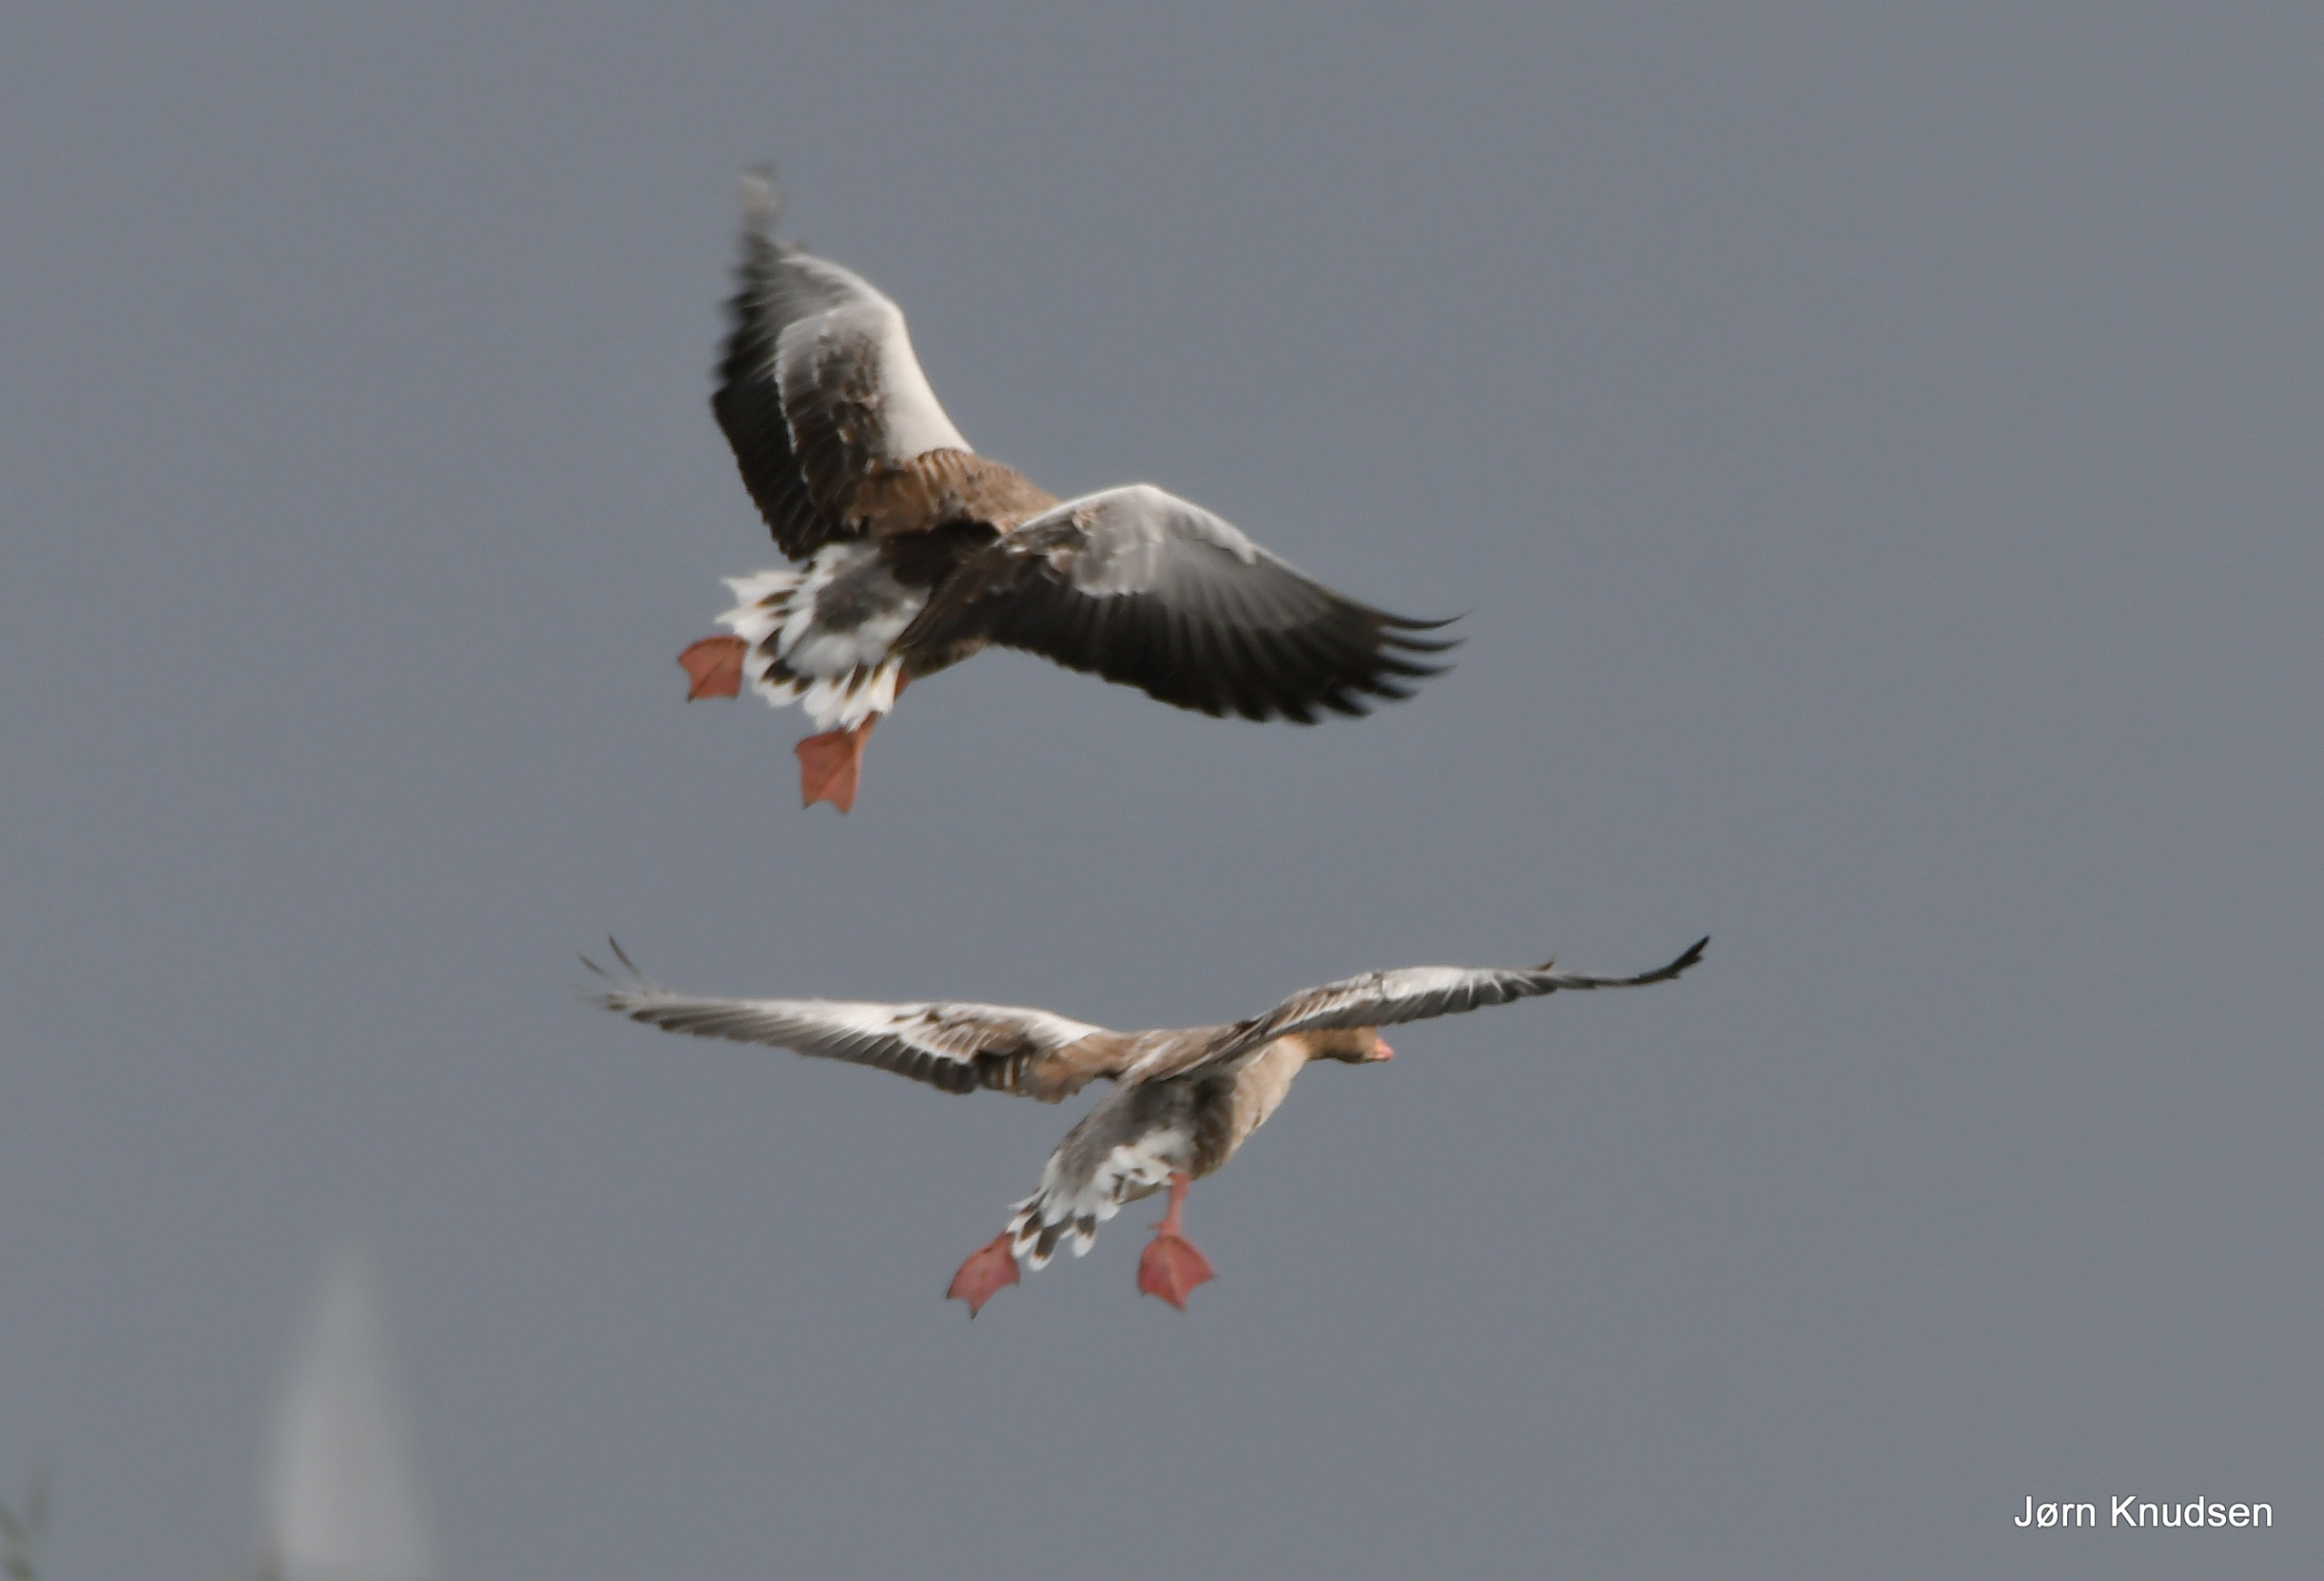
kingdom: Animalia
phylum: Chordata
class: Aves
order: Anseriformes
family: Anatidae
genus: Anser
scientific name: Anser anser
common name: Grågås
